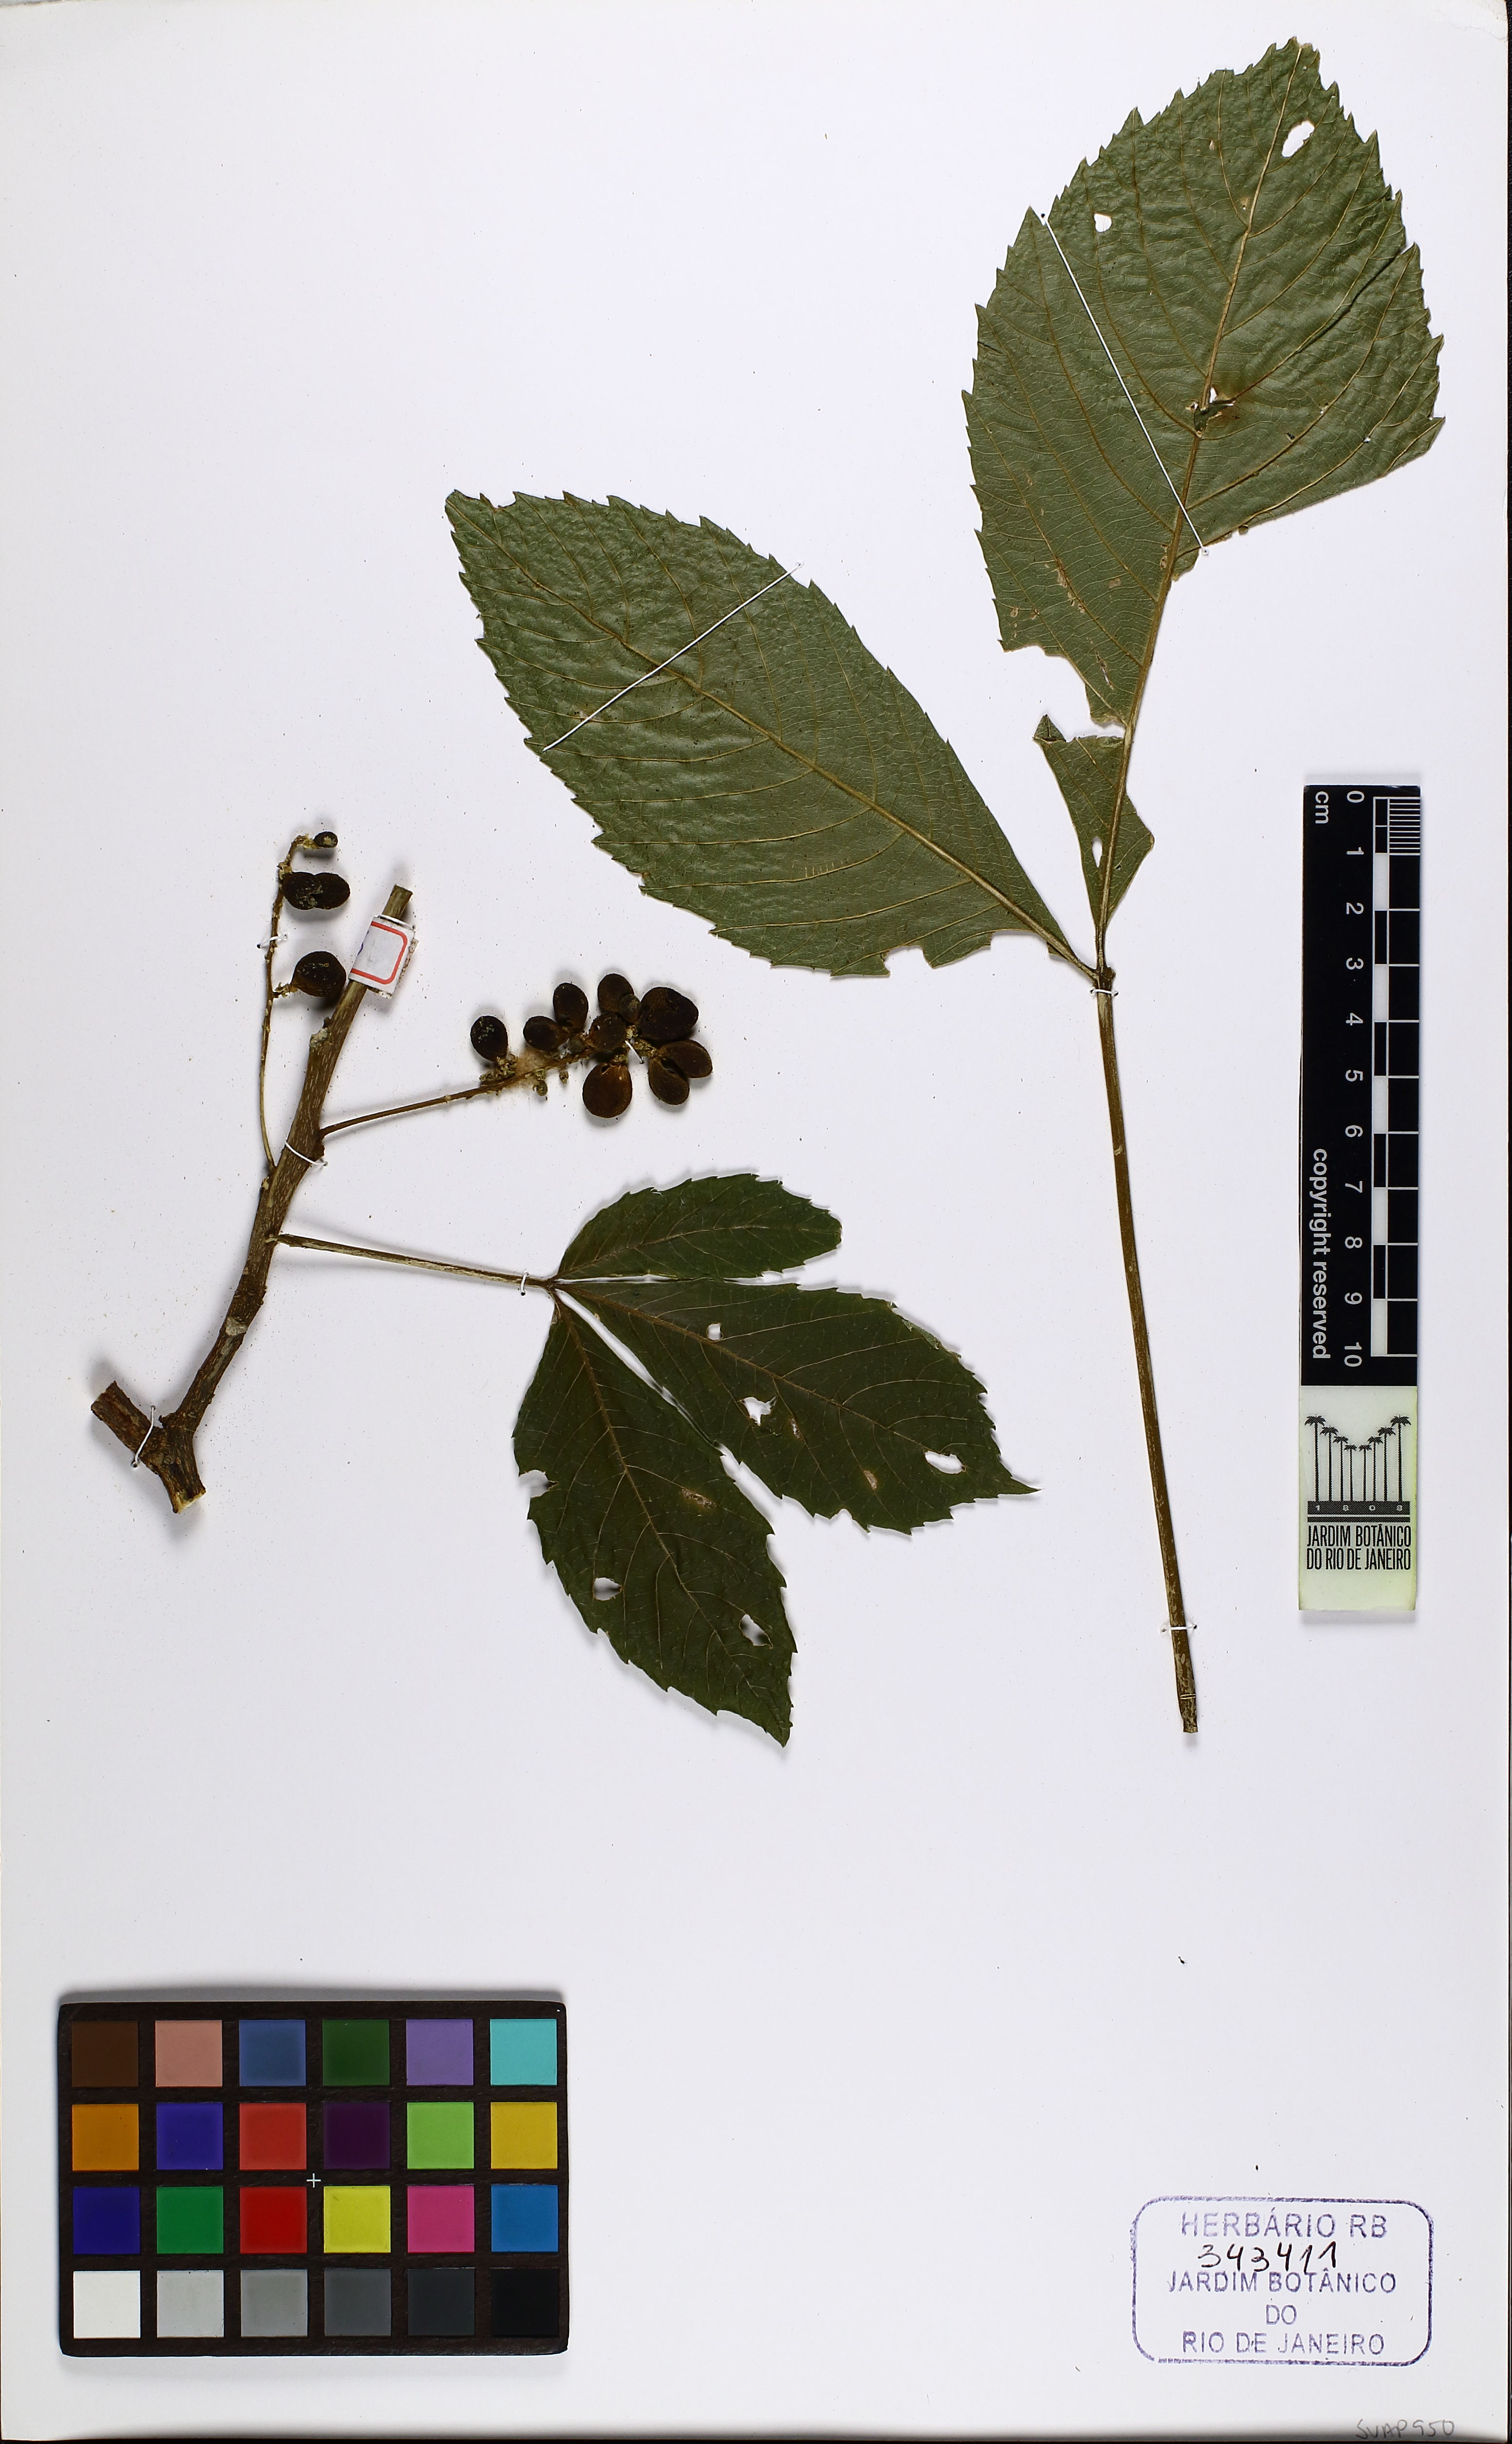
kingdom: Plantae
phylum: Tracheophyta
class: Magnoliopsida
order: Sapindales
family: Sapindaceae
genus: Allophylus
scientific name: Allophylus sericeus
